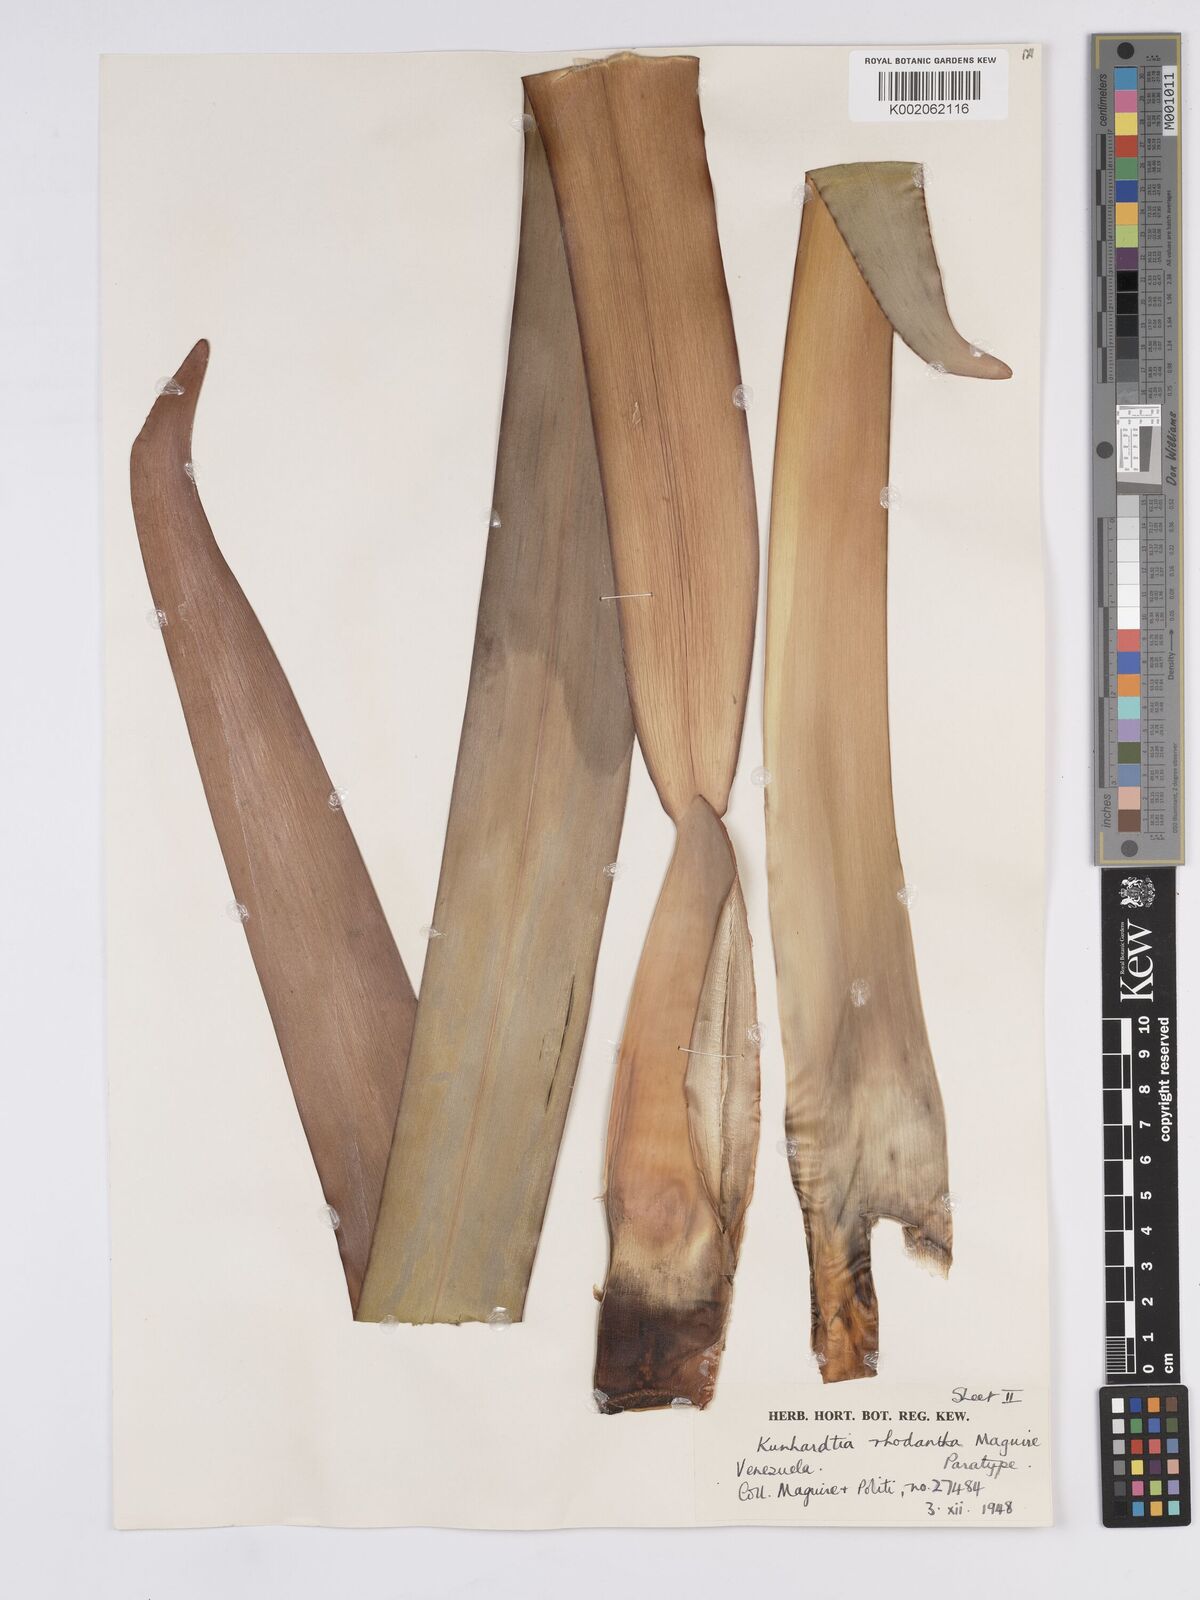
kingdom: Plantae
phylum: Tracheophyta
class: Liliopsida
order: Poales
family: Rapateaceae
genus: Kunhardtia
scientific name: Kunhardtia rhodantha
